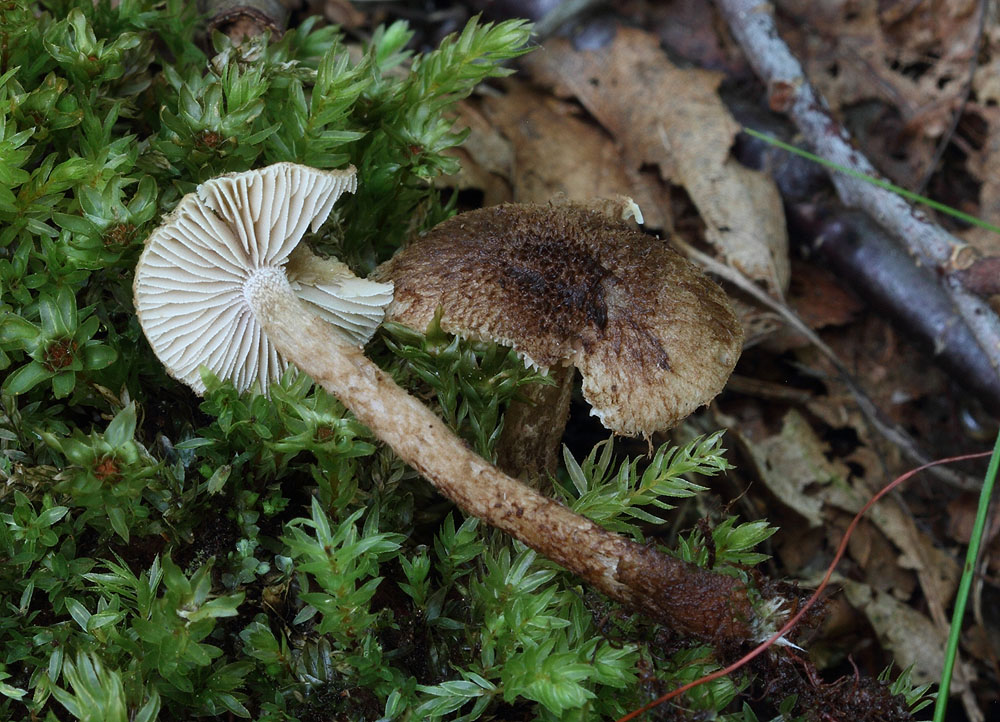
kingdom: Fungi
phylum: Basidiomycota
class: Agaricomycetes
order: Agaricales
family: Inocybaceae
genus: Inocybe
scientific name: Inocybe stellatospora
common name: spidsskællet trævlhat
